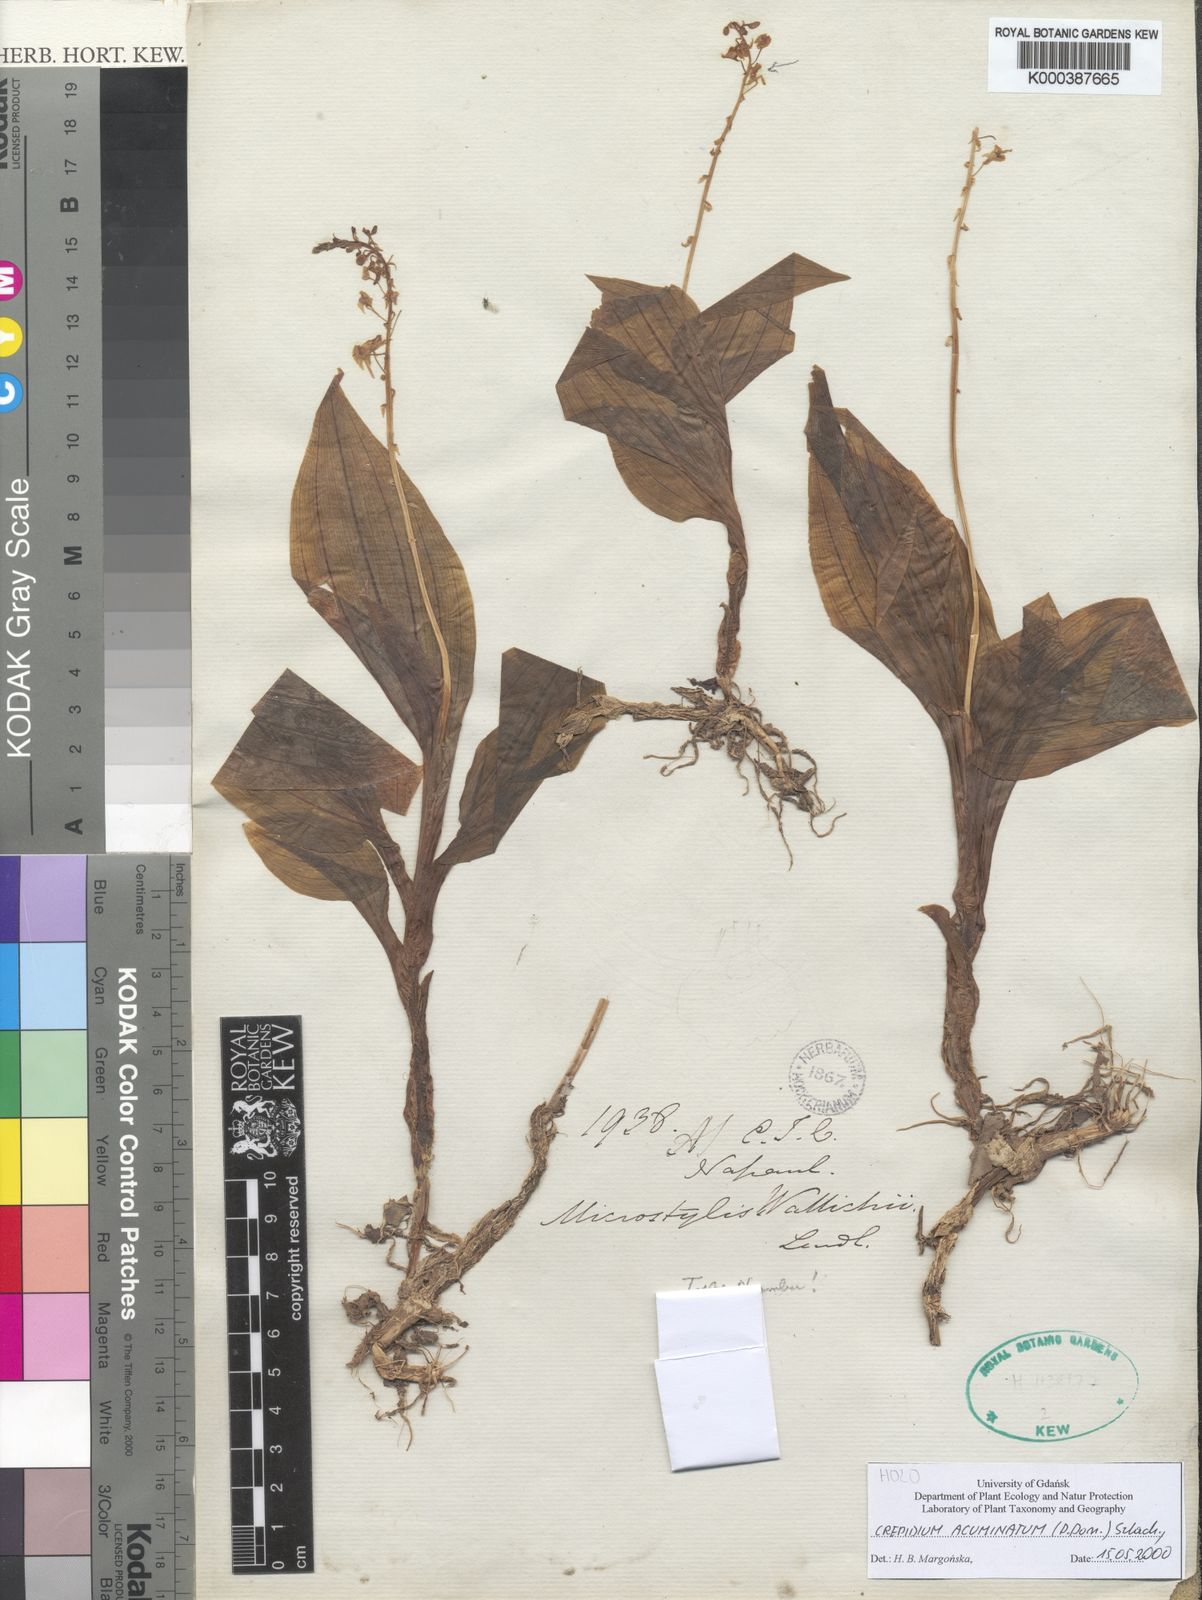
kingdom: Plantae
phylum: Tracheophyta
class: Liliopsida
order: Asparagales
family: Orchidaceae
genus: Crepidium
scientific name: Crepidium acuminatum
